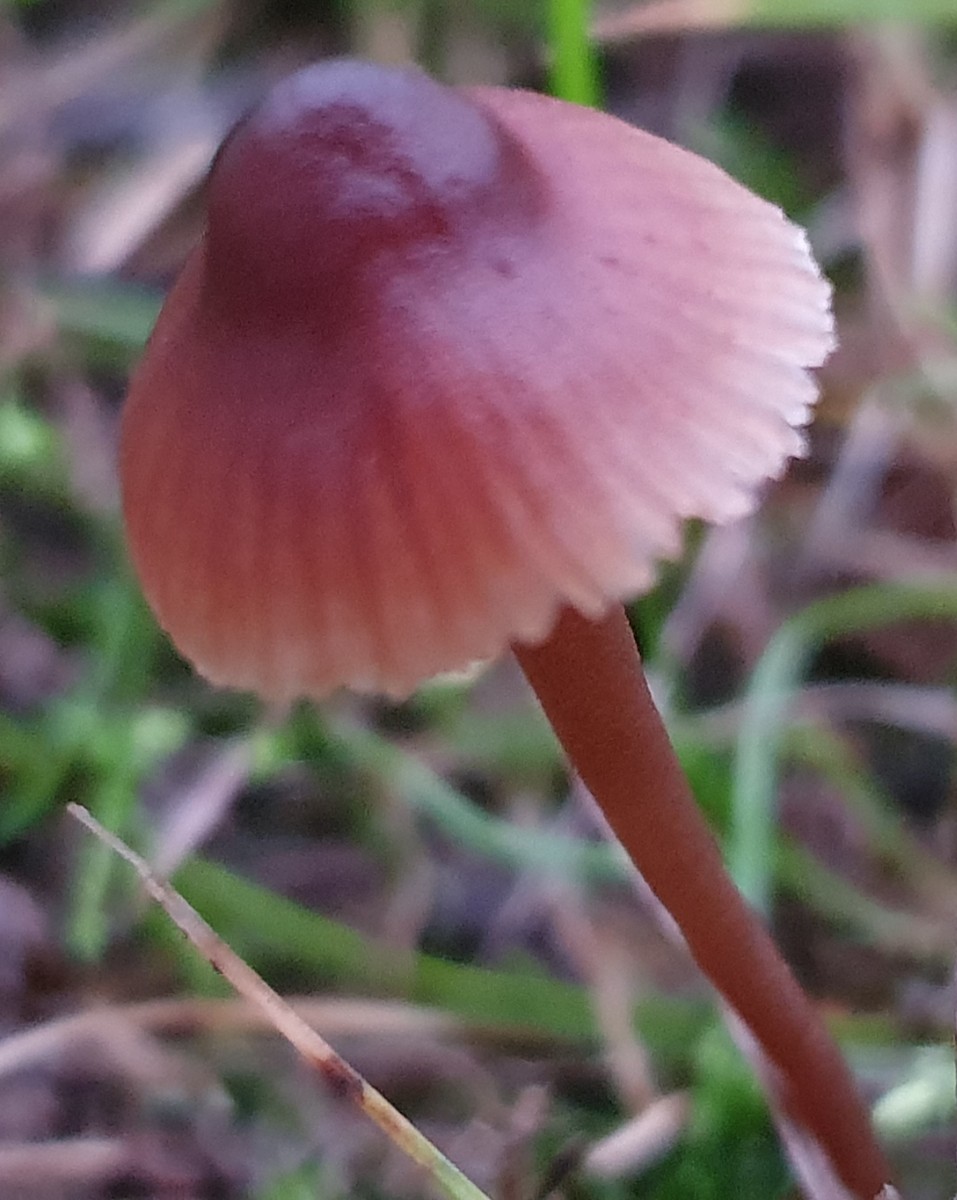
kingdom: Fungi
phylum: Basidiomycota
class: Agaricomycetes
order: Agaricales
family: Mycenaceae
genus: Mycena
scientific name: Mycena
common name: huesvamp
